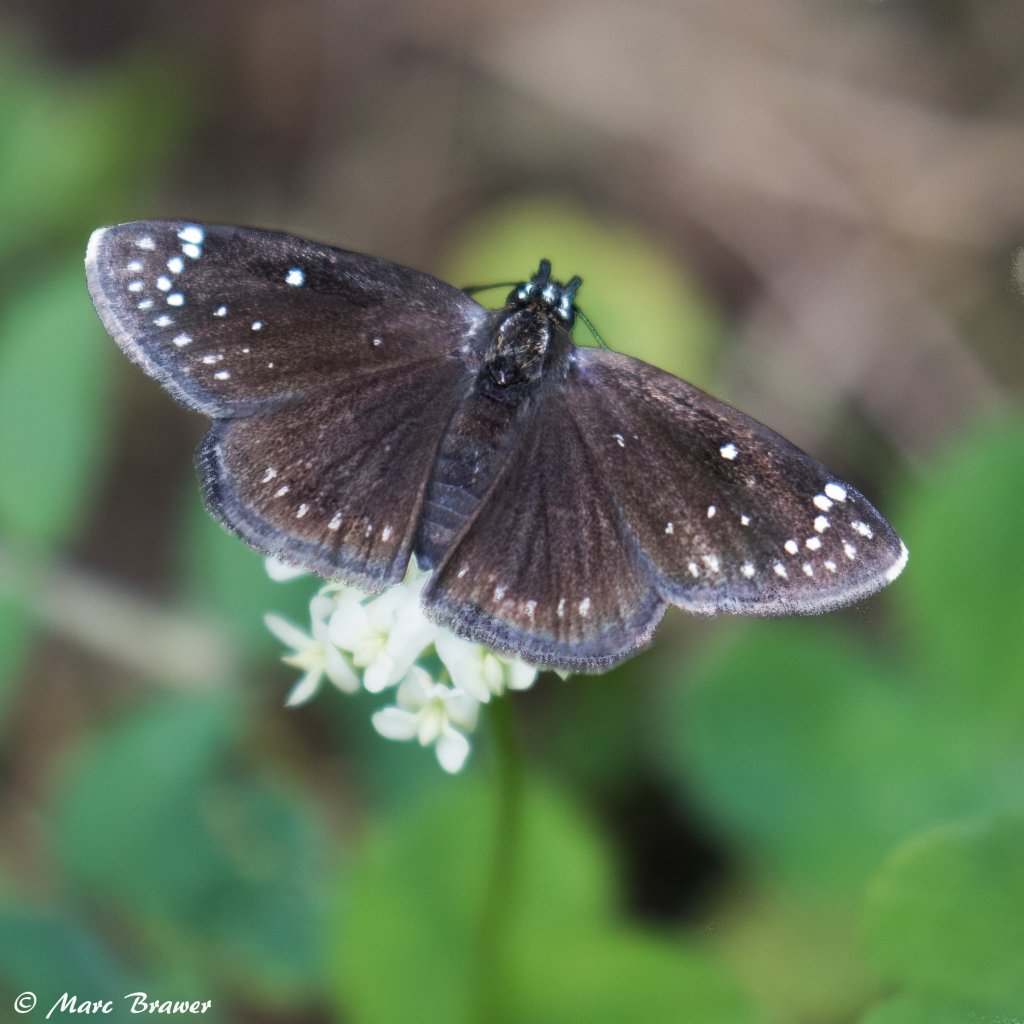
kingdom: Animalia
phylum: Arthropoda
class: Insecta
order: Lepidoptera
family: Hesperiidae
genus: Pholisora
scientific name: Pholisora catullus
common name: Common Sootywing
